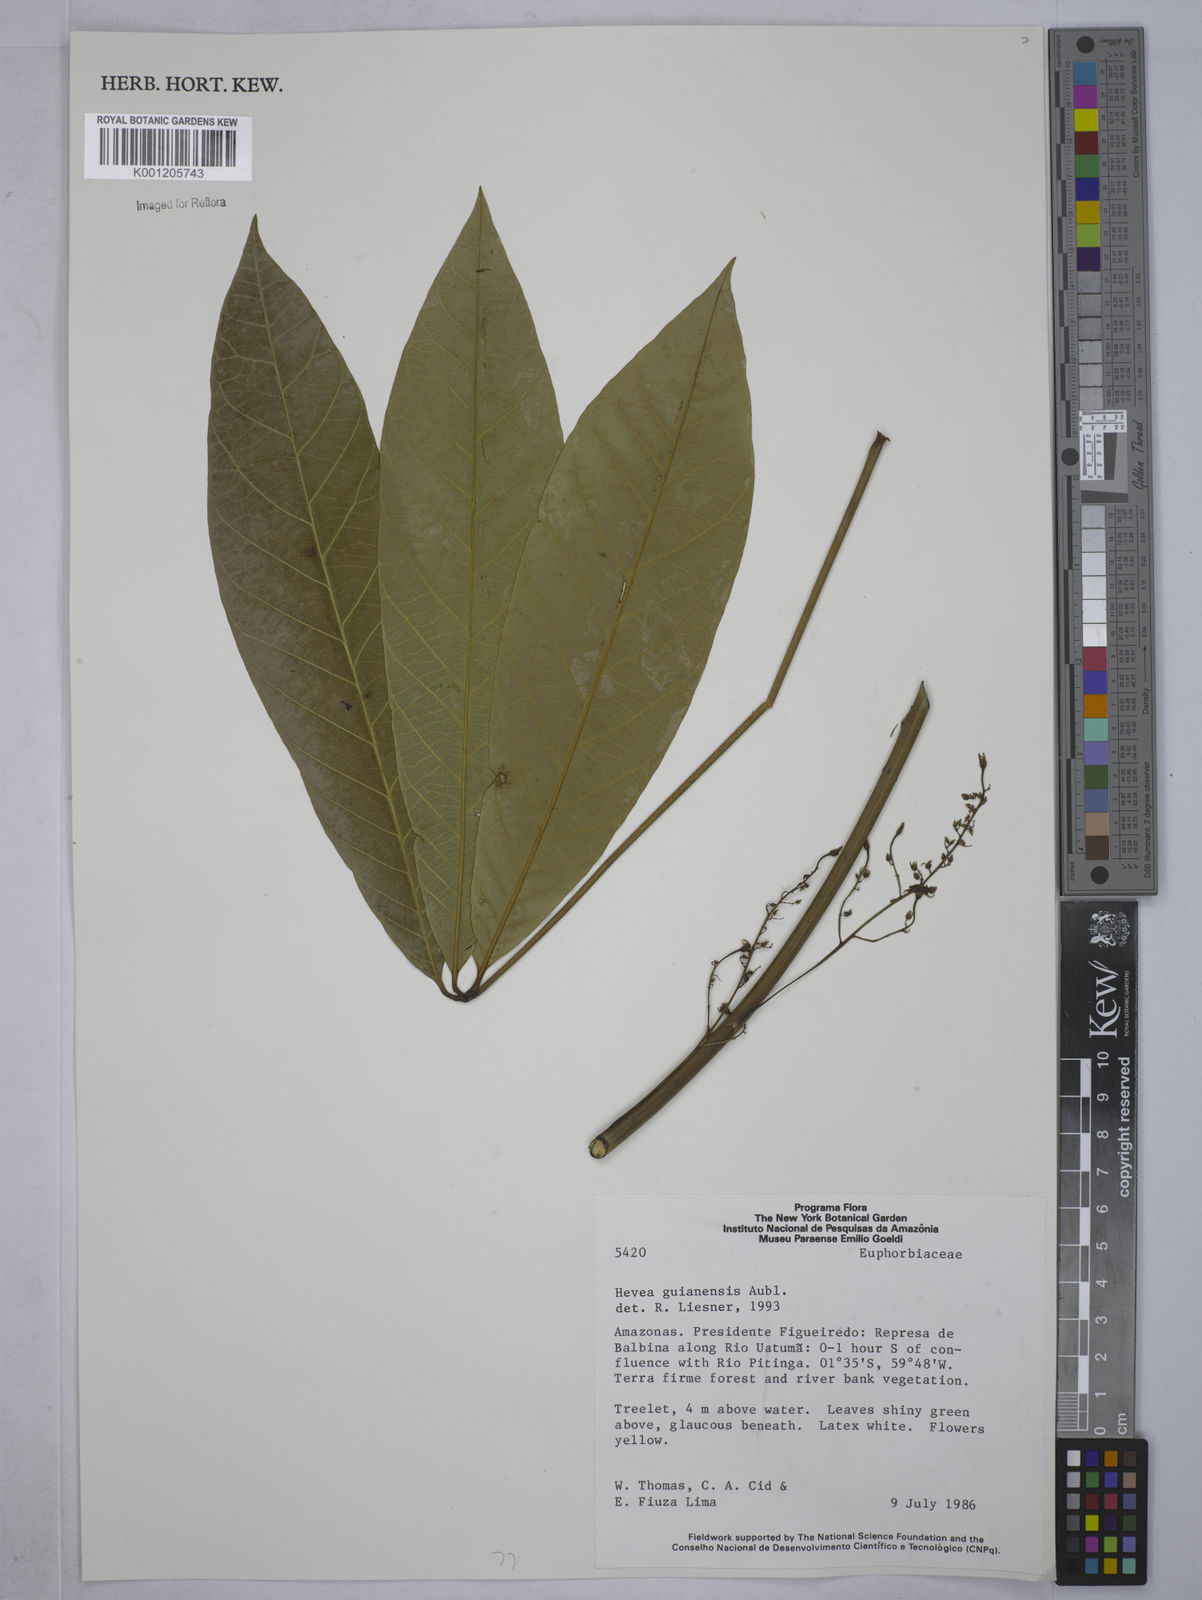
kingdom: Plantae
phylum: Tracheophyta
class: Magnoliopsida
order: Malpighiales
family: Euphorbiaceae
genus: Hevea
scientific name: Hevea guianensis
